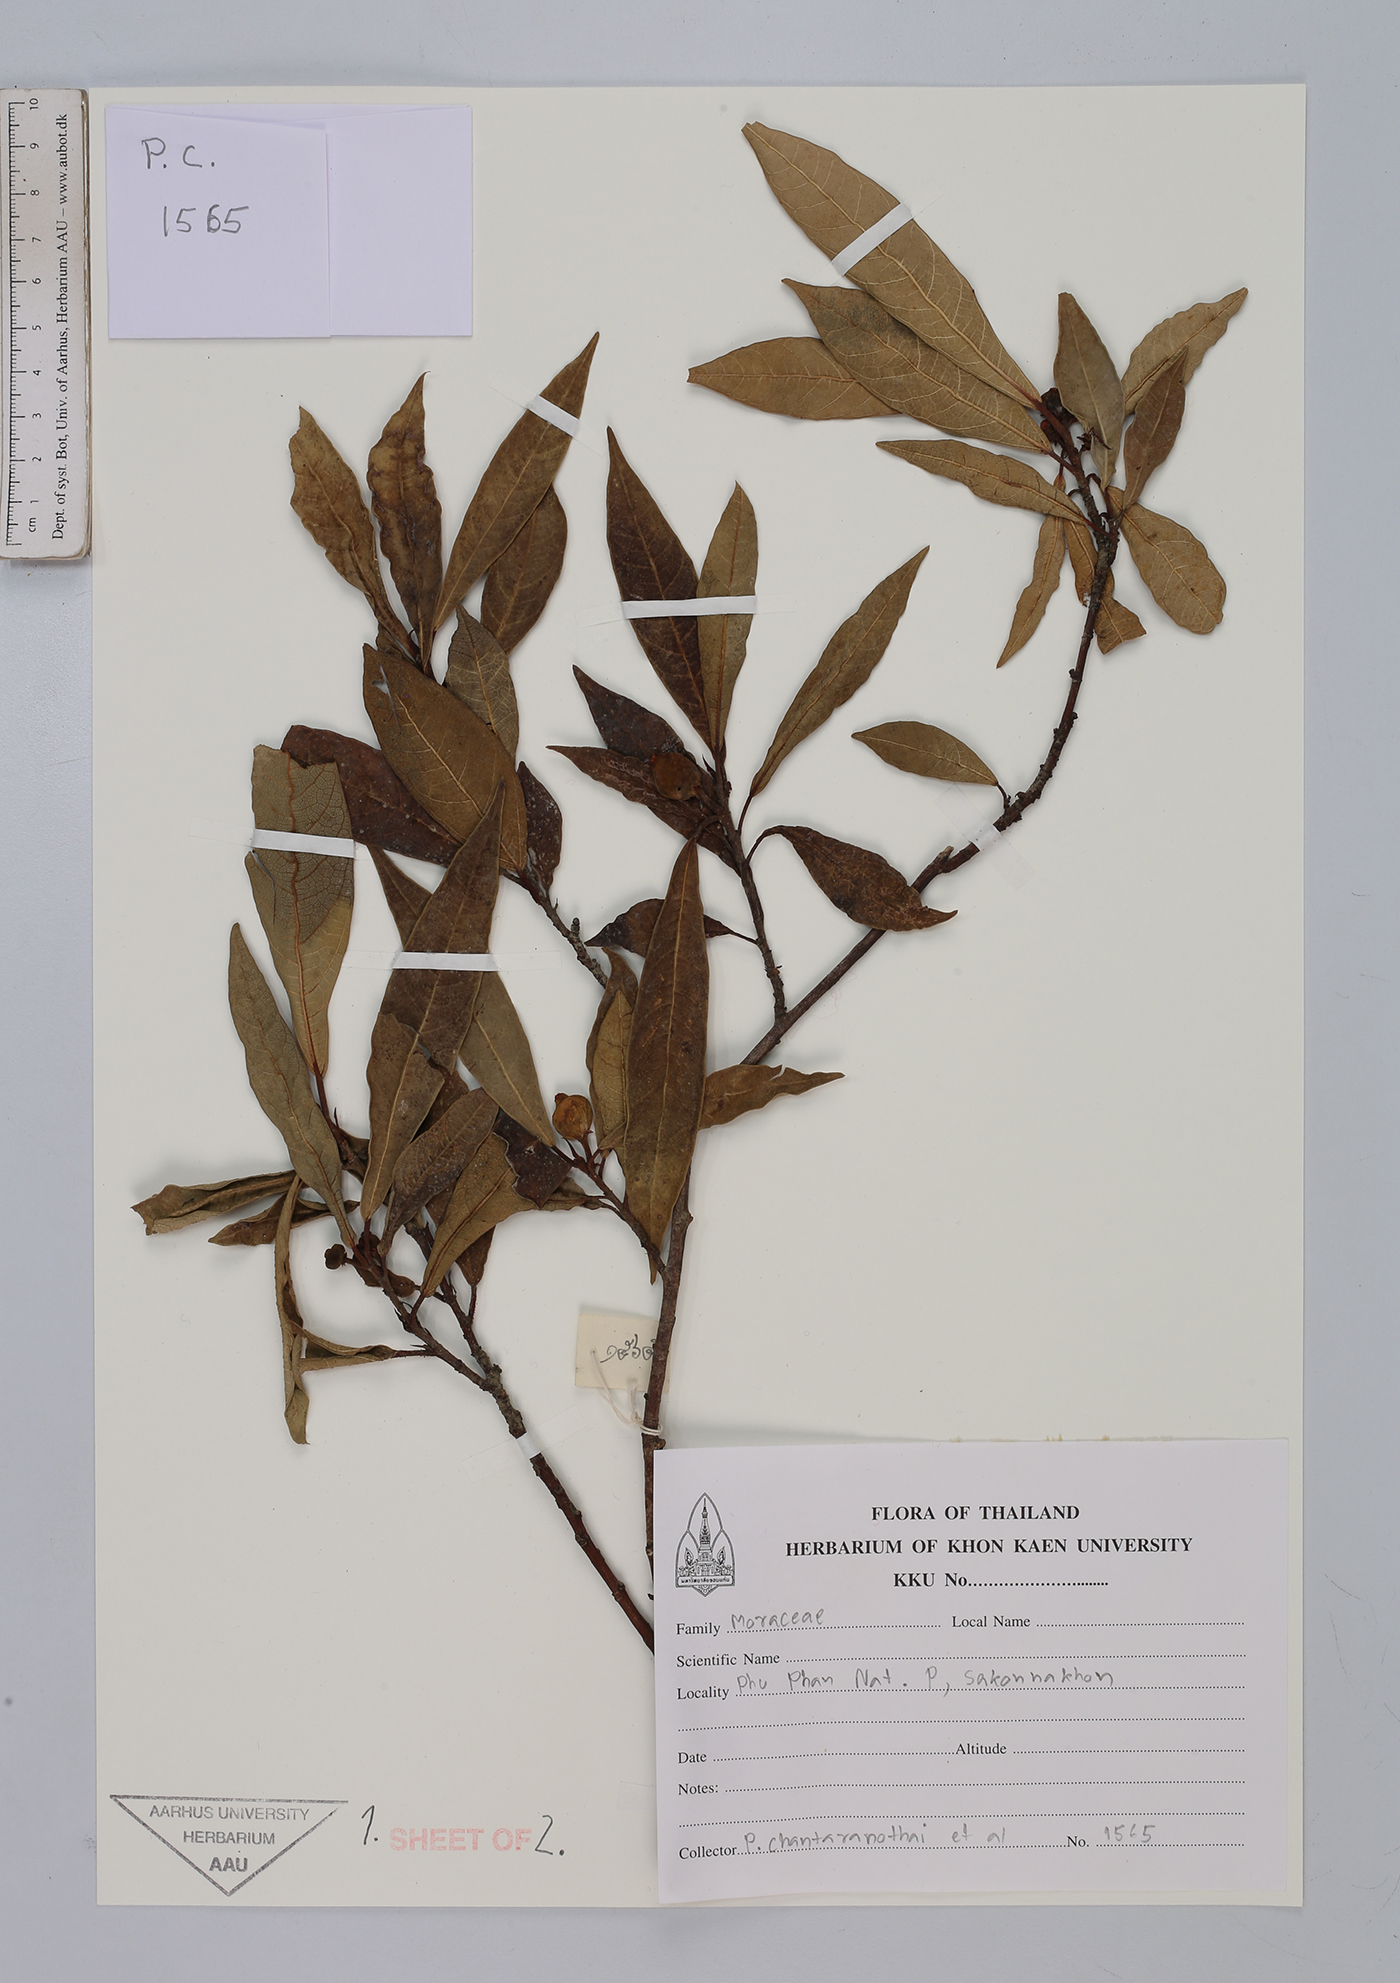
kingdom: Plantae
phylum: Tracheophyta
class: Magnoliopsida
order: Rosales
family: Moraceae
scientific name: Moraceae
